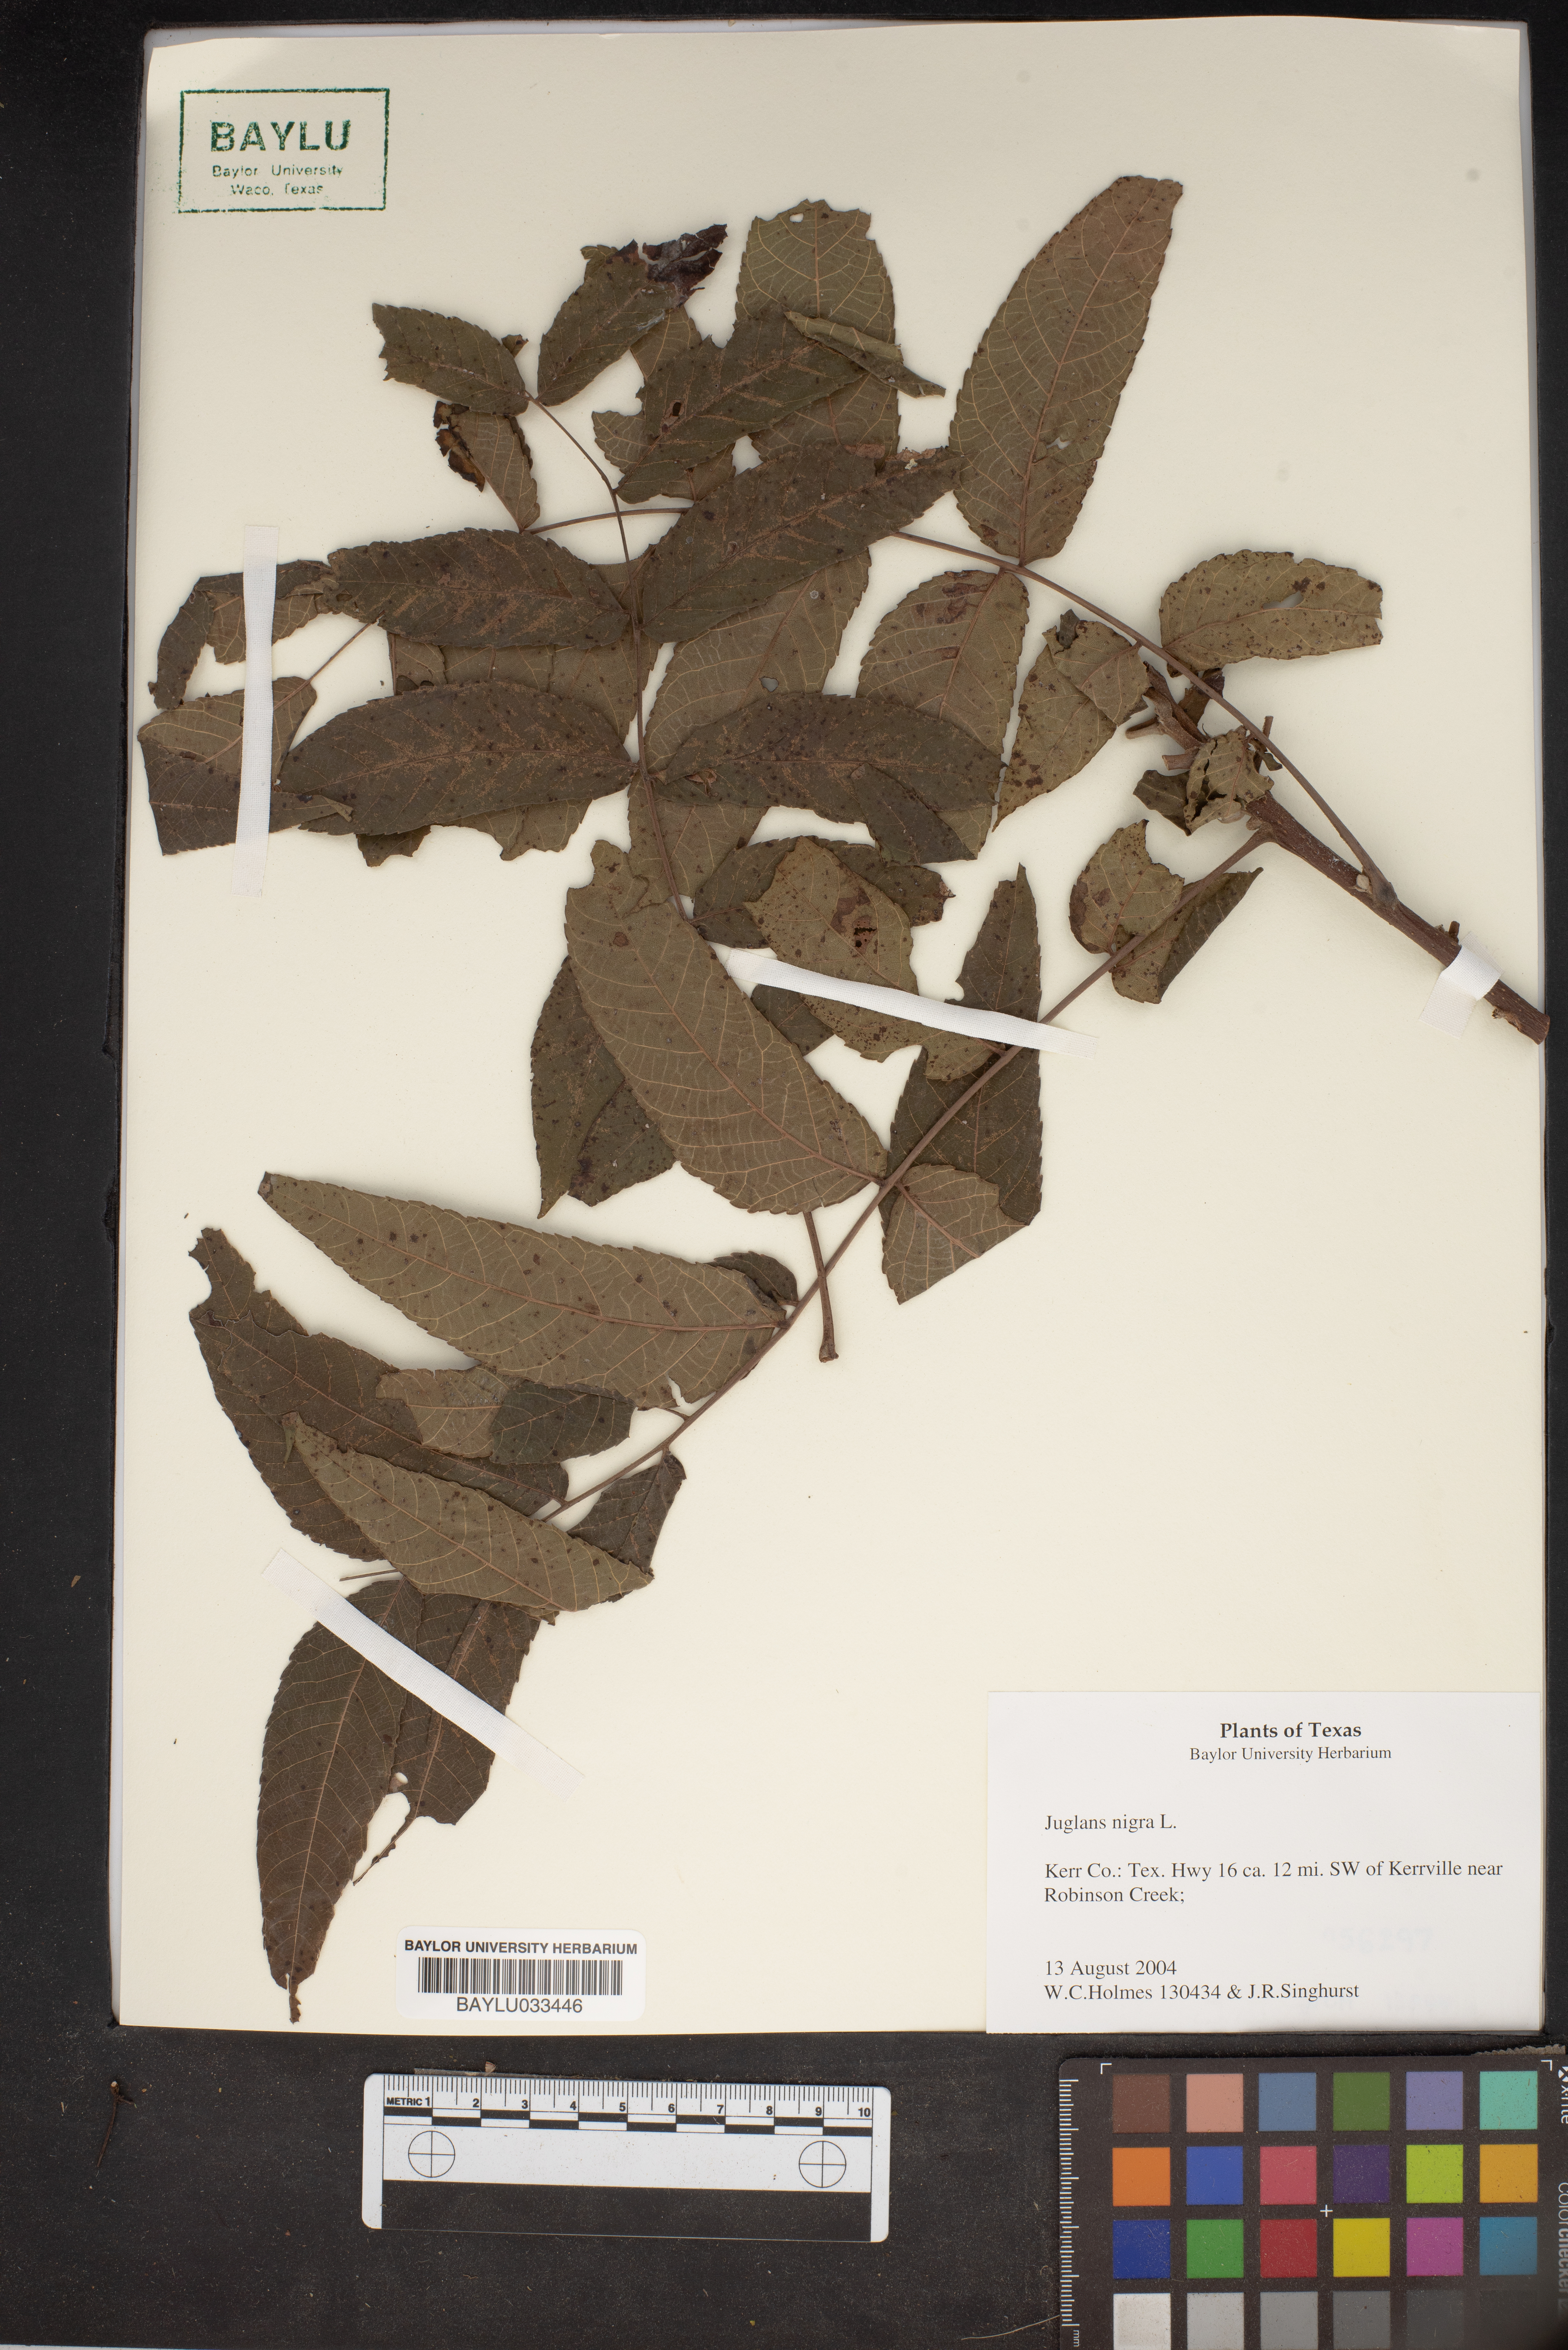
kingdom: Plantae
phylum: Tracheophyta
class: Magnoliopsida
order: Fagales
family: Juglandaceae
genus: Juglans
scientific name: Juglans nigra
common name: Black walnut
